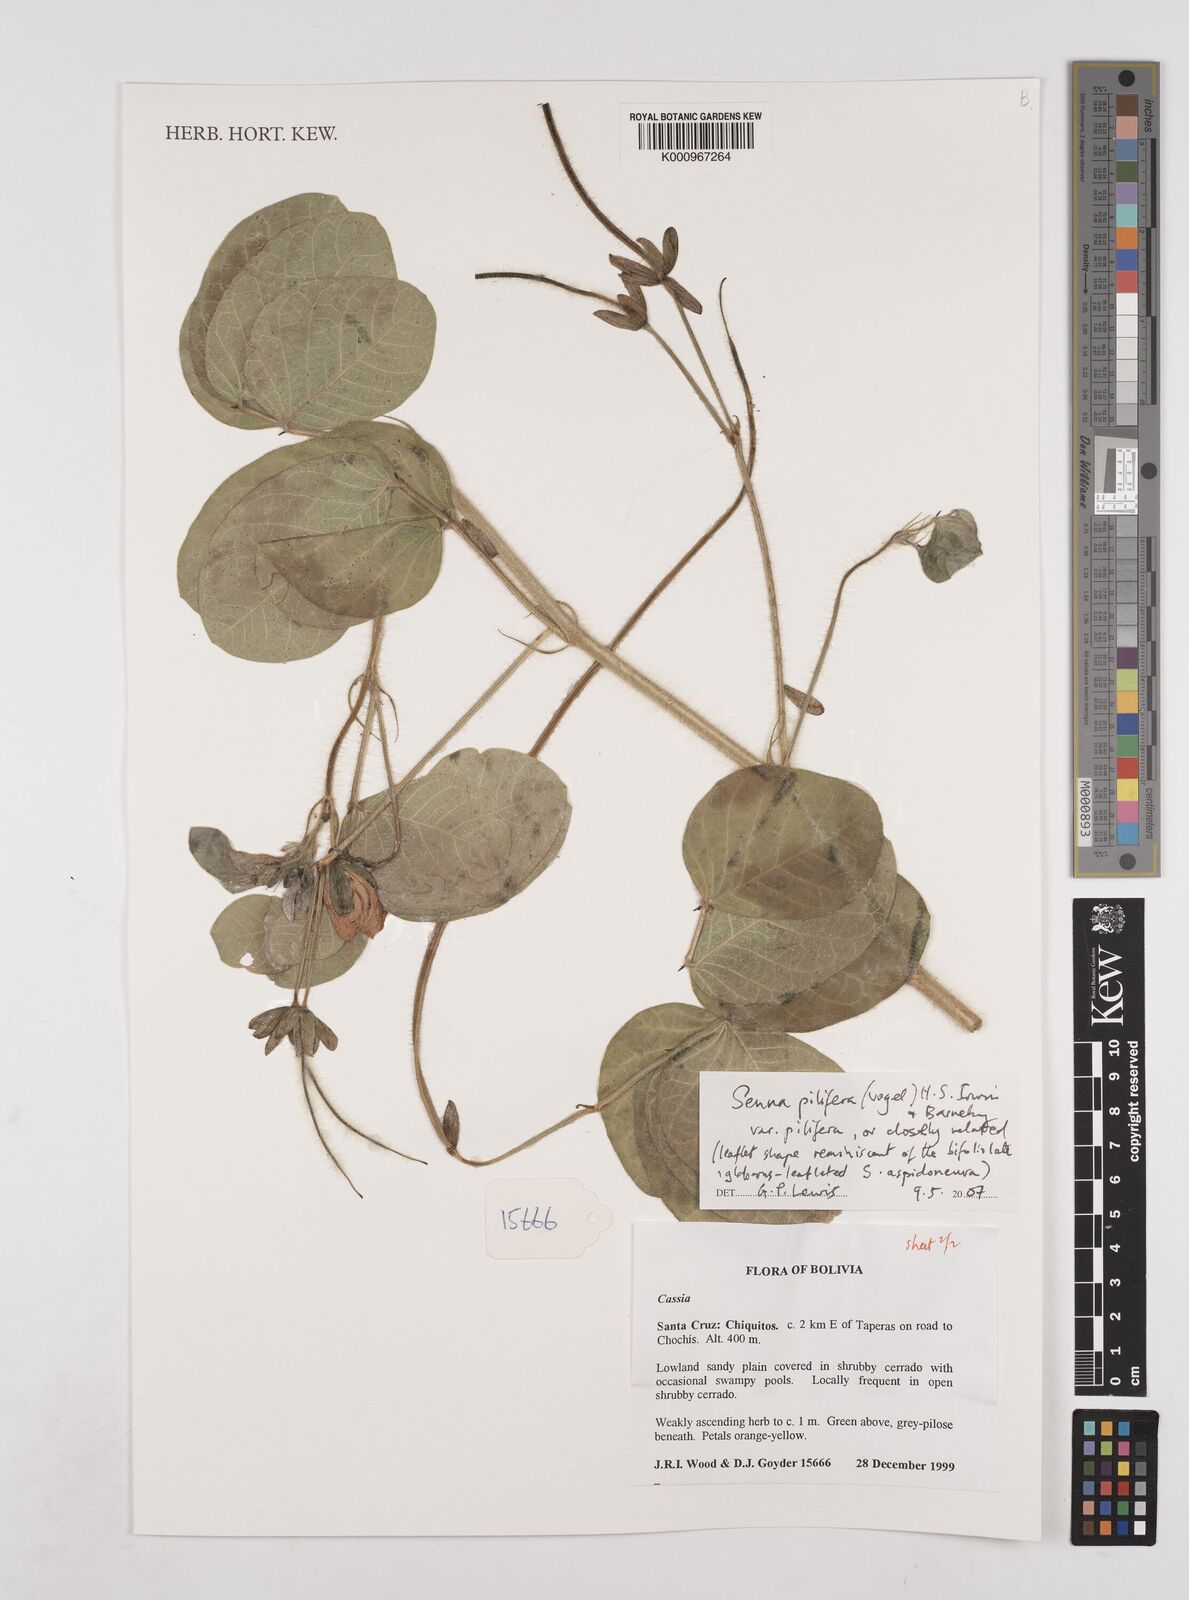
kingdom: Plantae
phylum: Tracheophyta
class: Magnoliopsida
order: Fabales
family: Fabaceae
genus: Senna
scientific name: Senna pilifera
